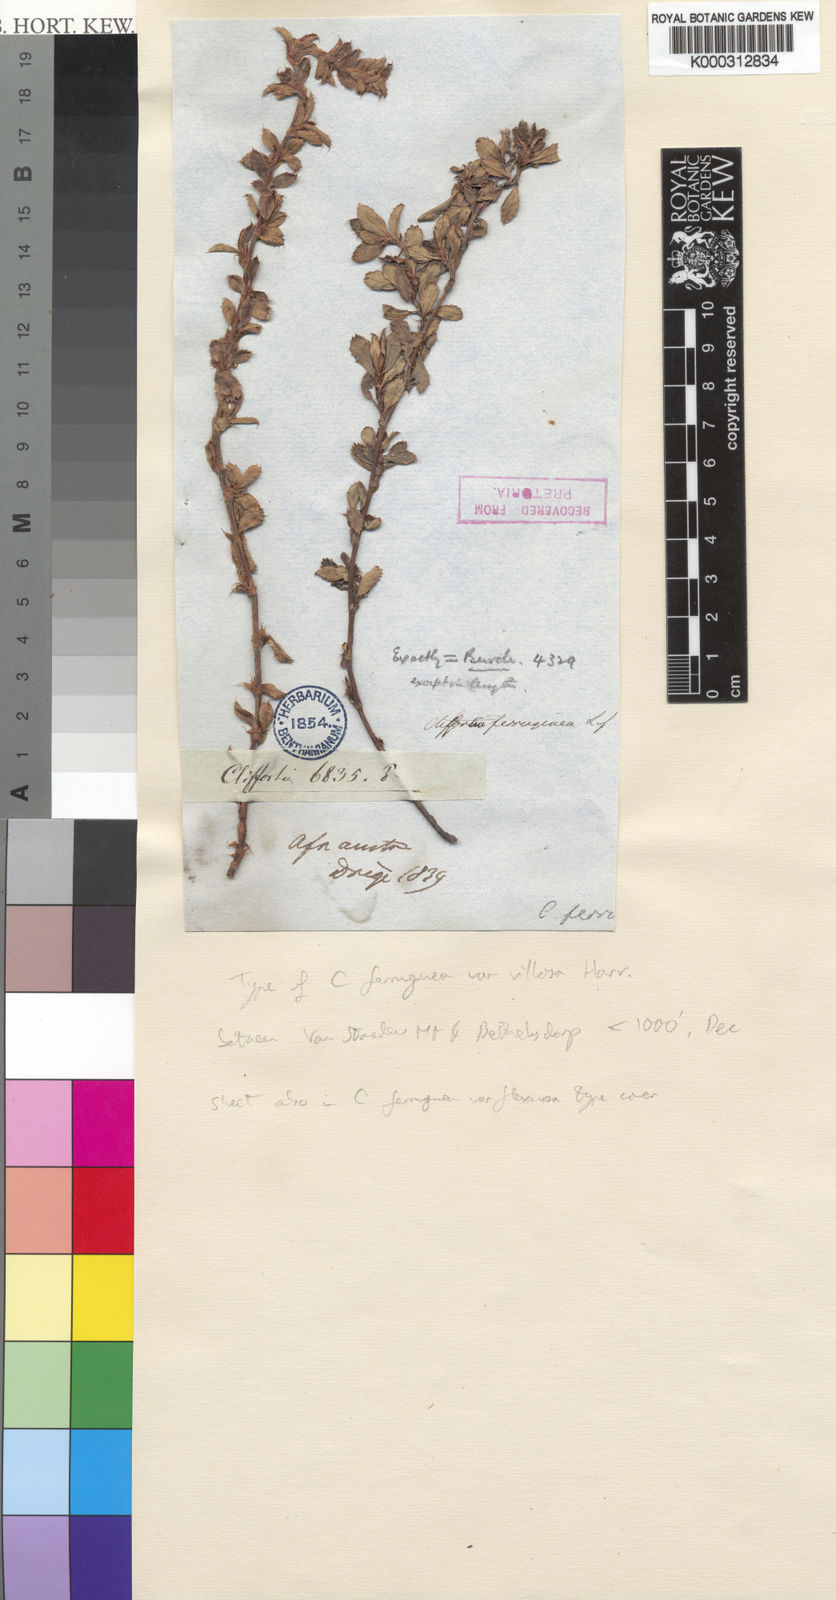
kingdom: Plantae
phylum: Tracheophyta
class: Magnoliopsida
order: Rosales
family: Rosaceae
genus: Cliffortia
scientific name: Cliffortia
